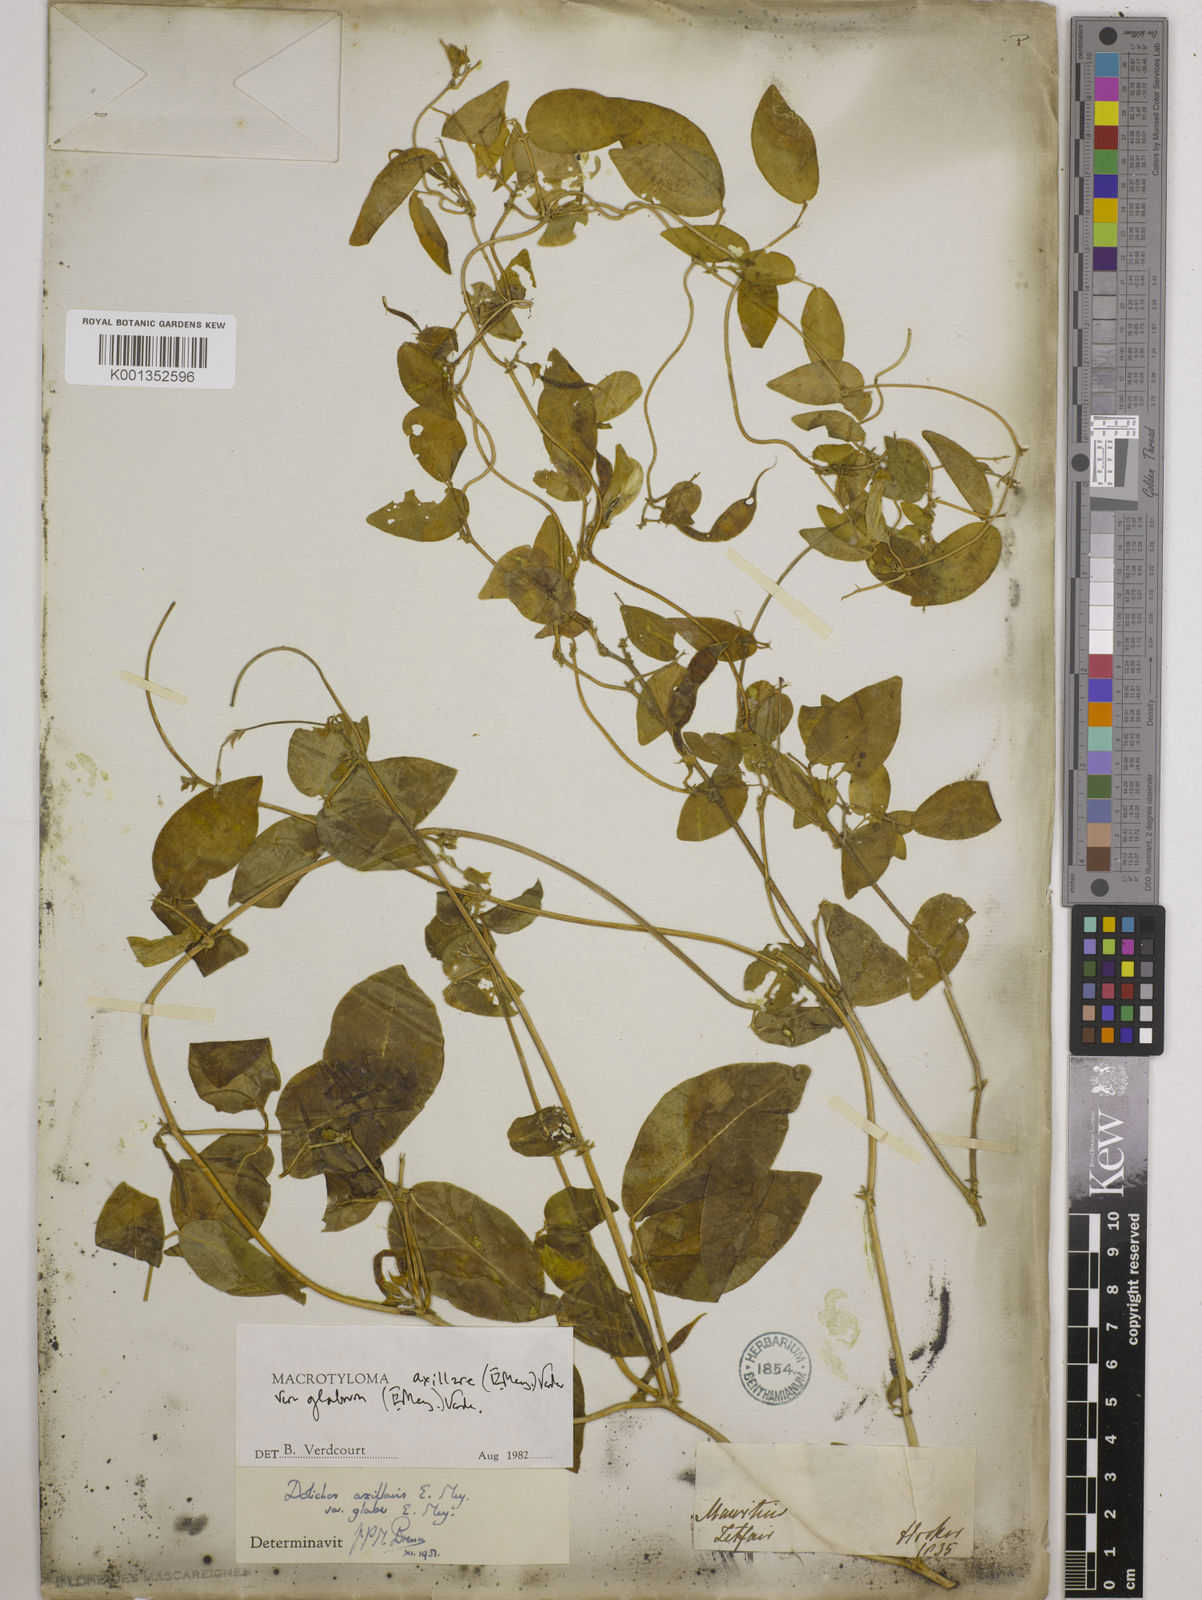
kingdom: Plantae
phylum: Tracheophyta
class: Magnoliopsida
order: Fabales
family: Fabaceae
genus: Macrotyloma
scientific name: Macrotyloma
